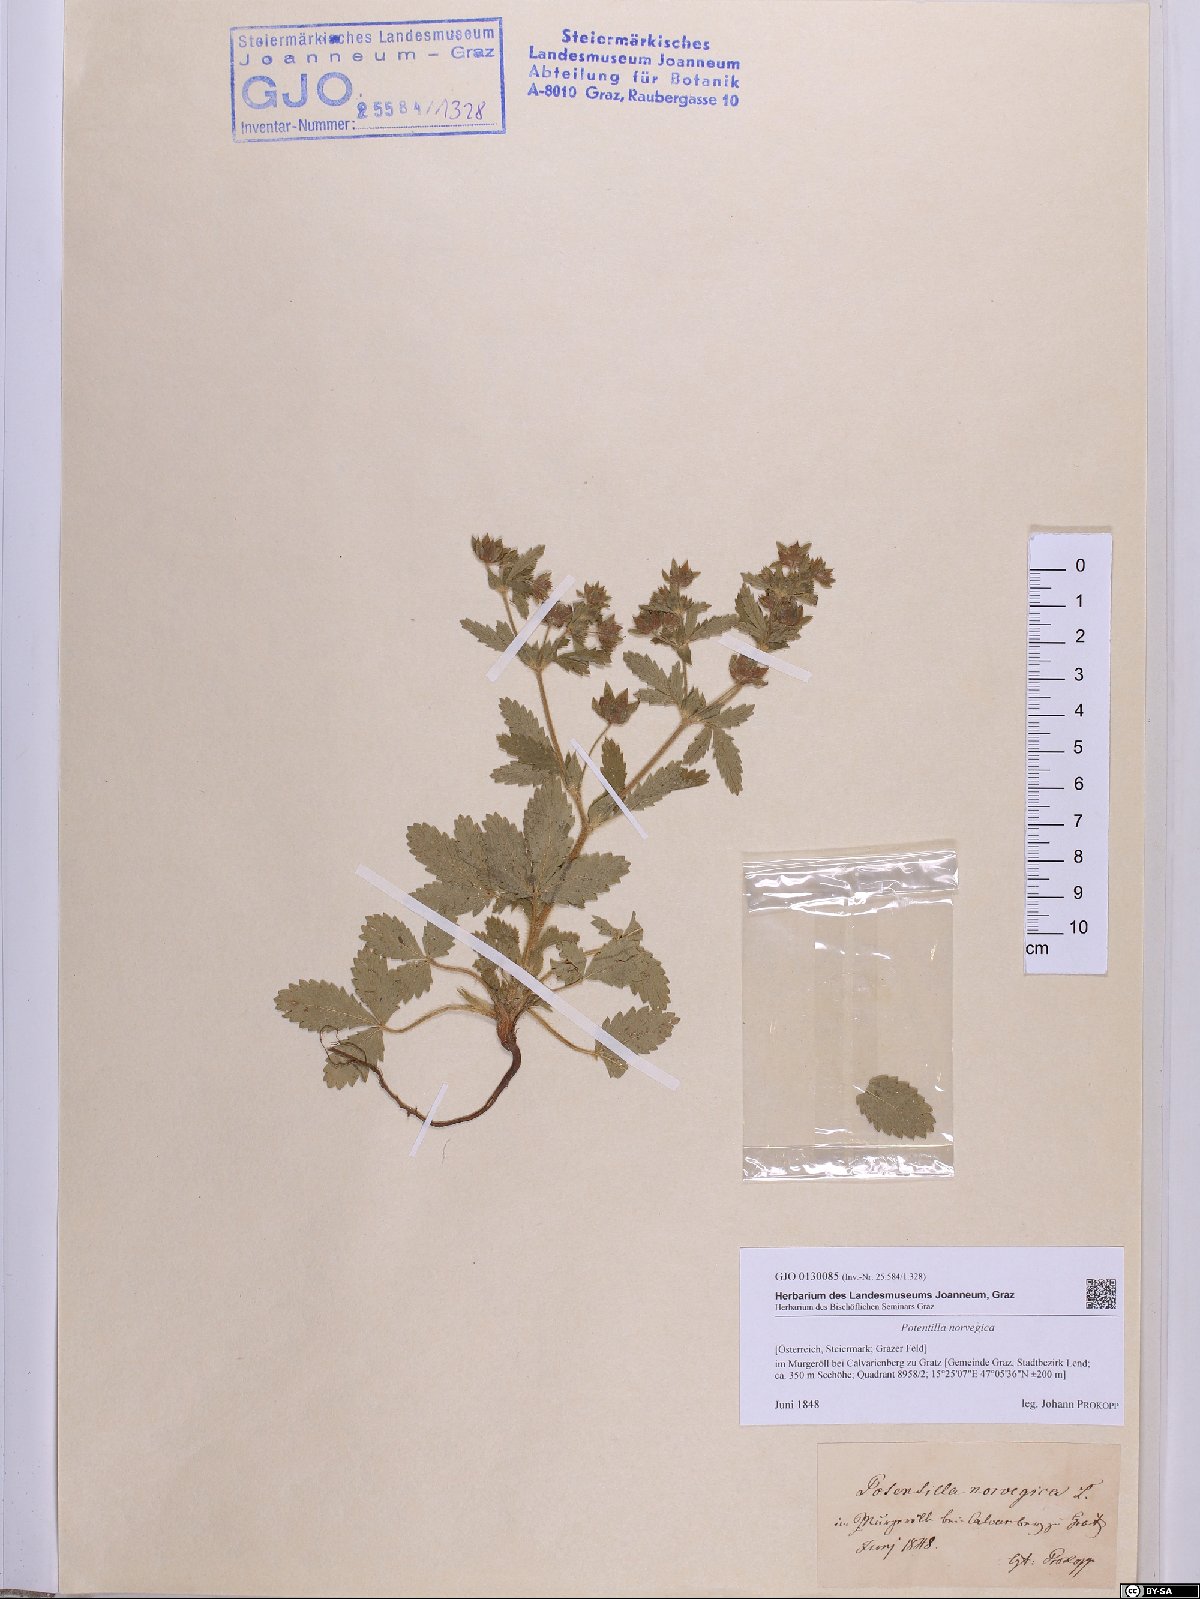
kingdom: Plantae
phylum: Tracheophyta
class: Magnoliopsida
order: Rosales
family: Rosaceae
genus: Potentilla
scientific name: Potentilla norvegica
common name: Ternate-leaved cinquefoil
